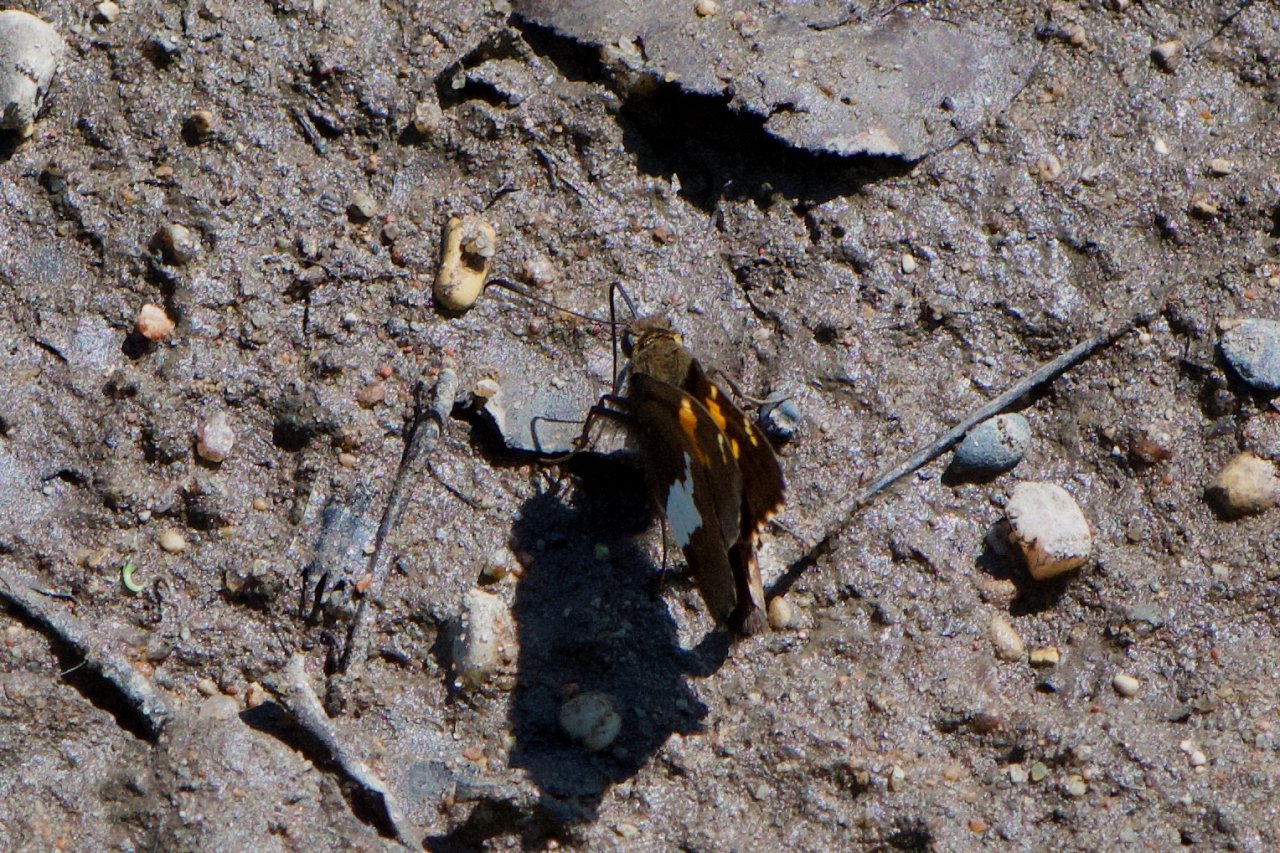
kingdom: Animalia
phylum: Arthropoda
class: Insecta
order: Lepidoptera
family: Hesperiidae
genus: Epargyreus
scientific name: Epargyreus clarus
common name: Silver-spotted Skipper
